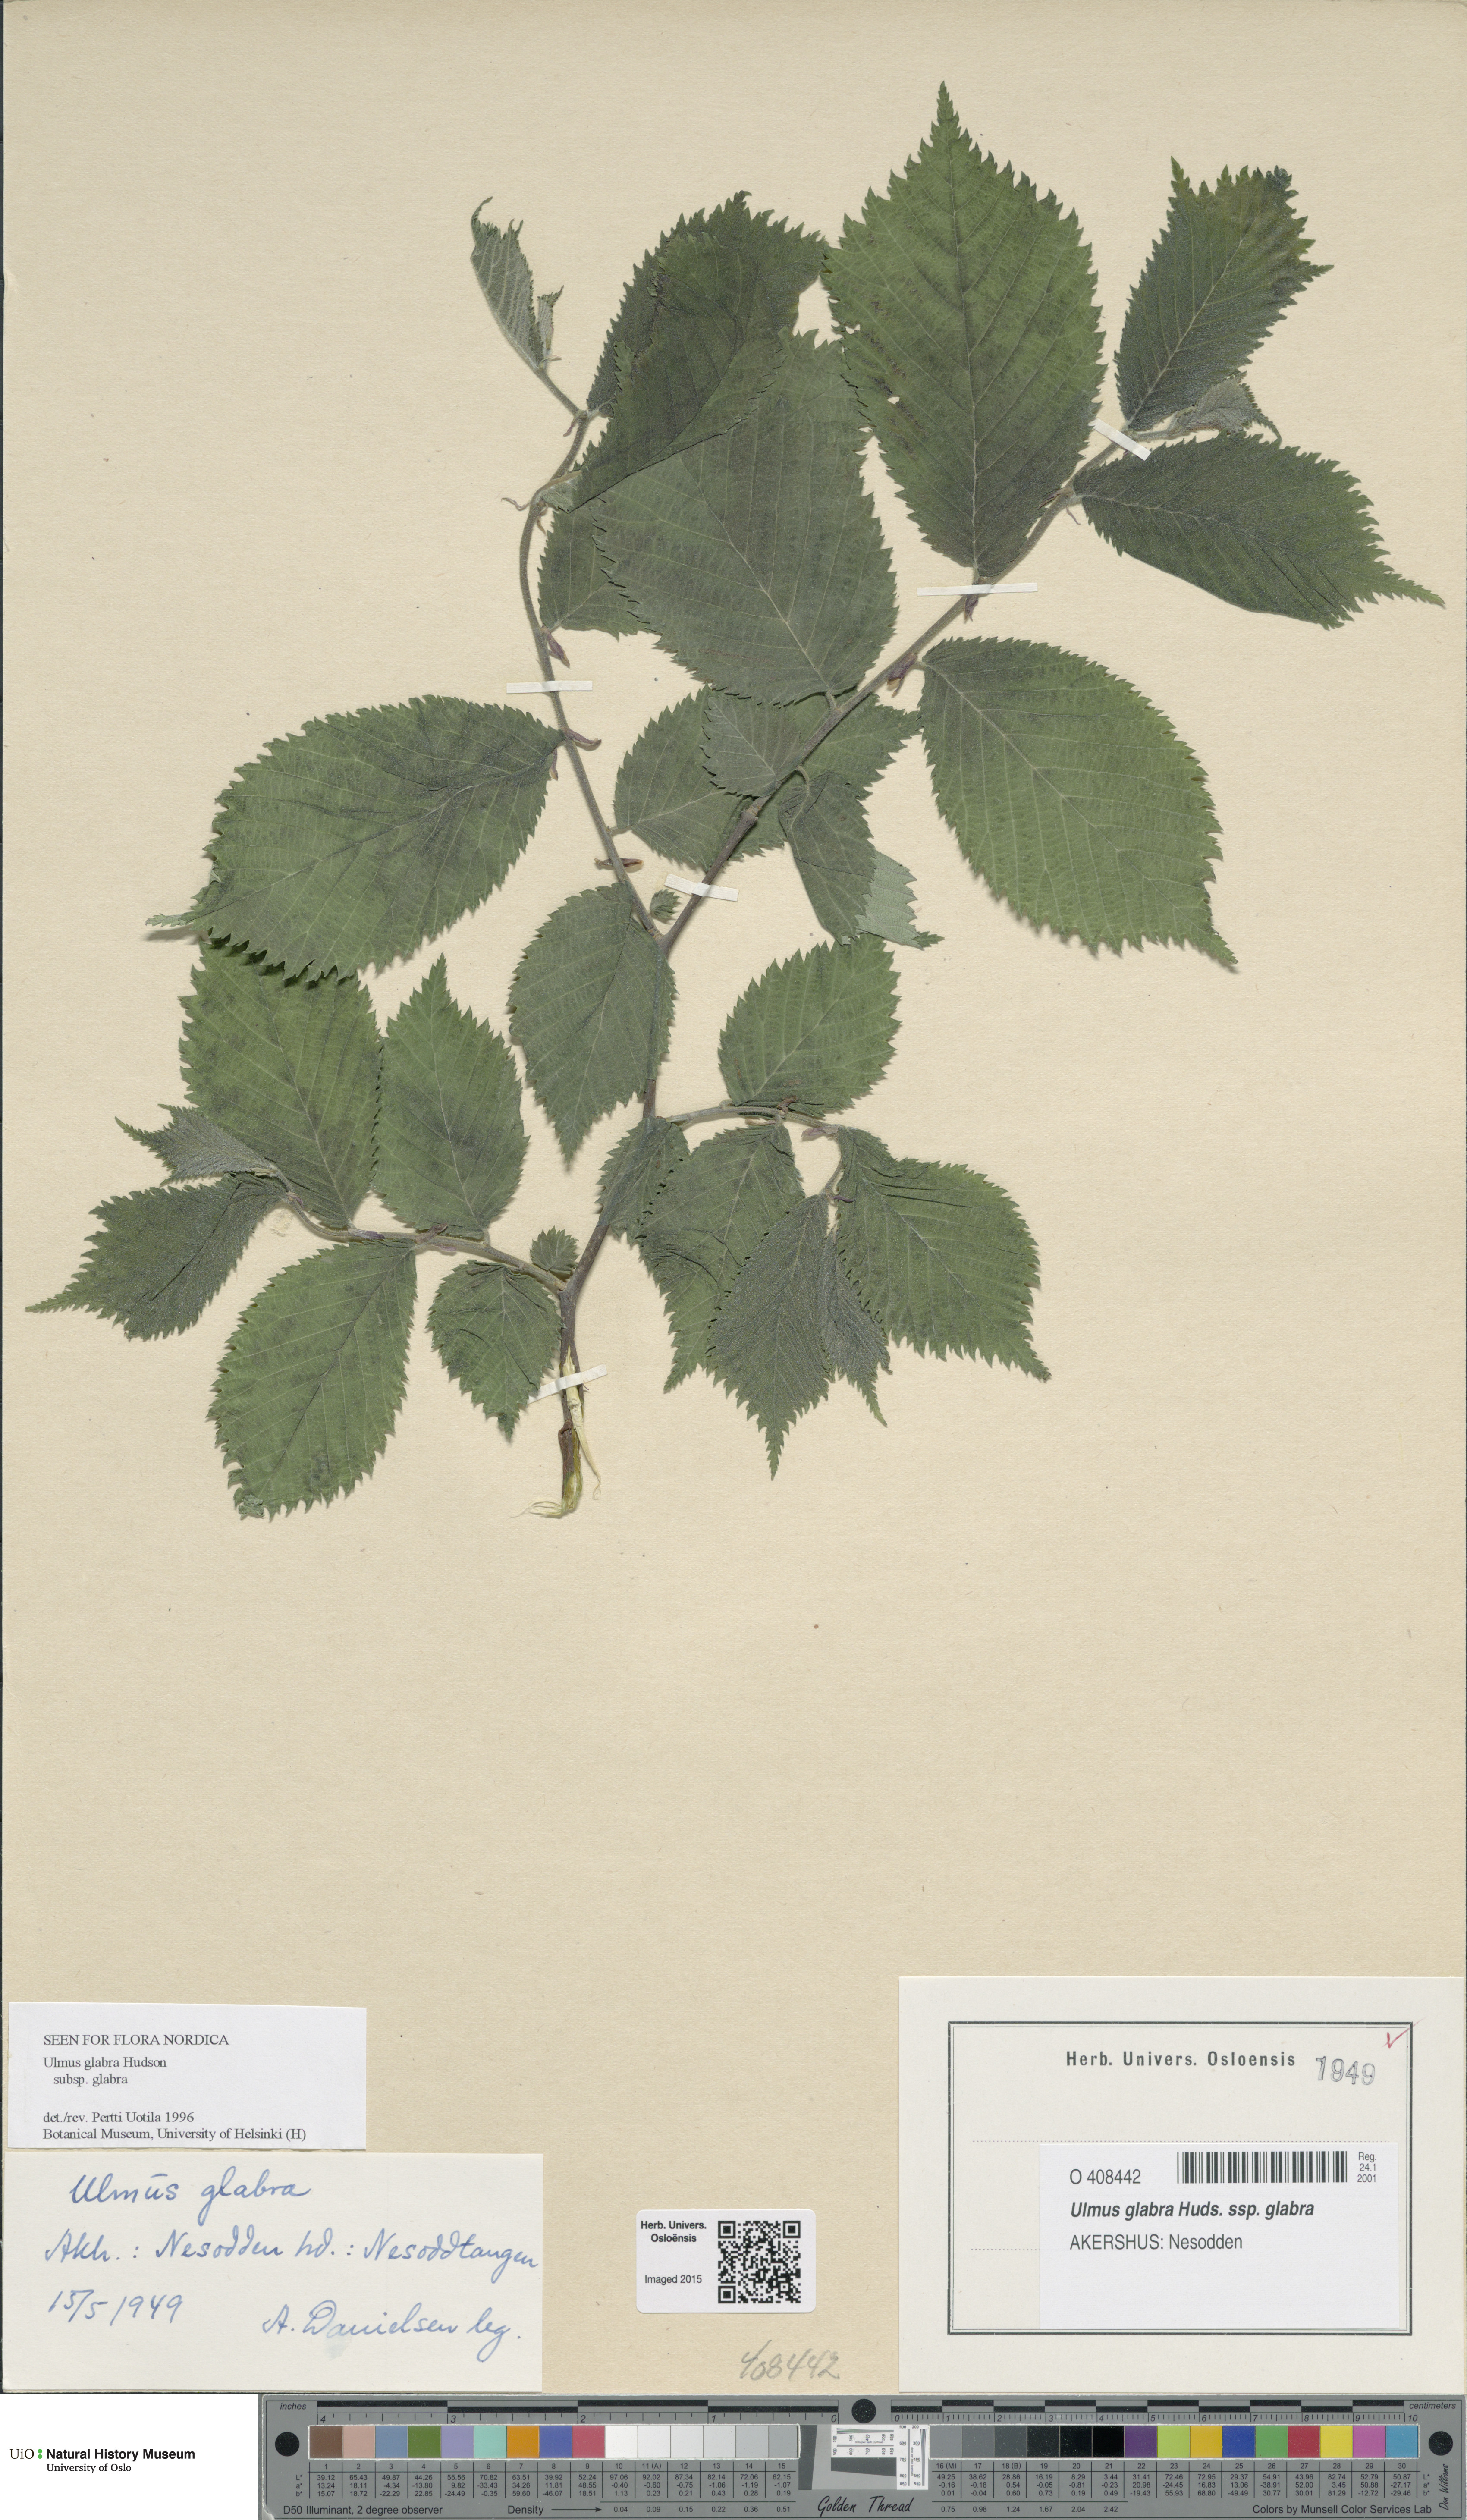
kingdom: Plantae
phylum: Tracheophyta
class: Magnoliopsida
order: Rosales
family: Ulmaceae
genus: Ulmus
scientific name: Ulmus glabra
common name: Wych elm
